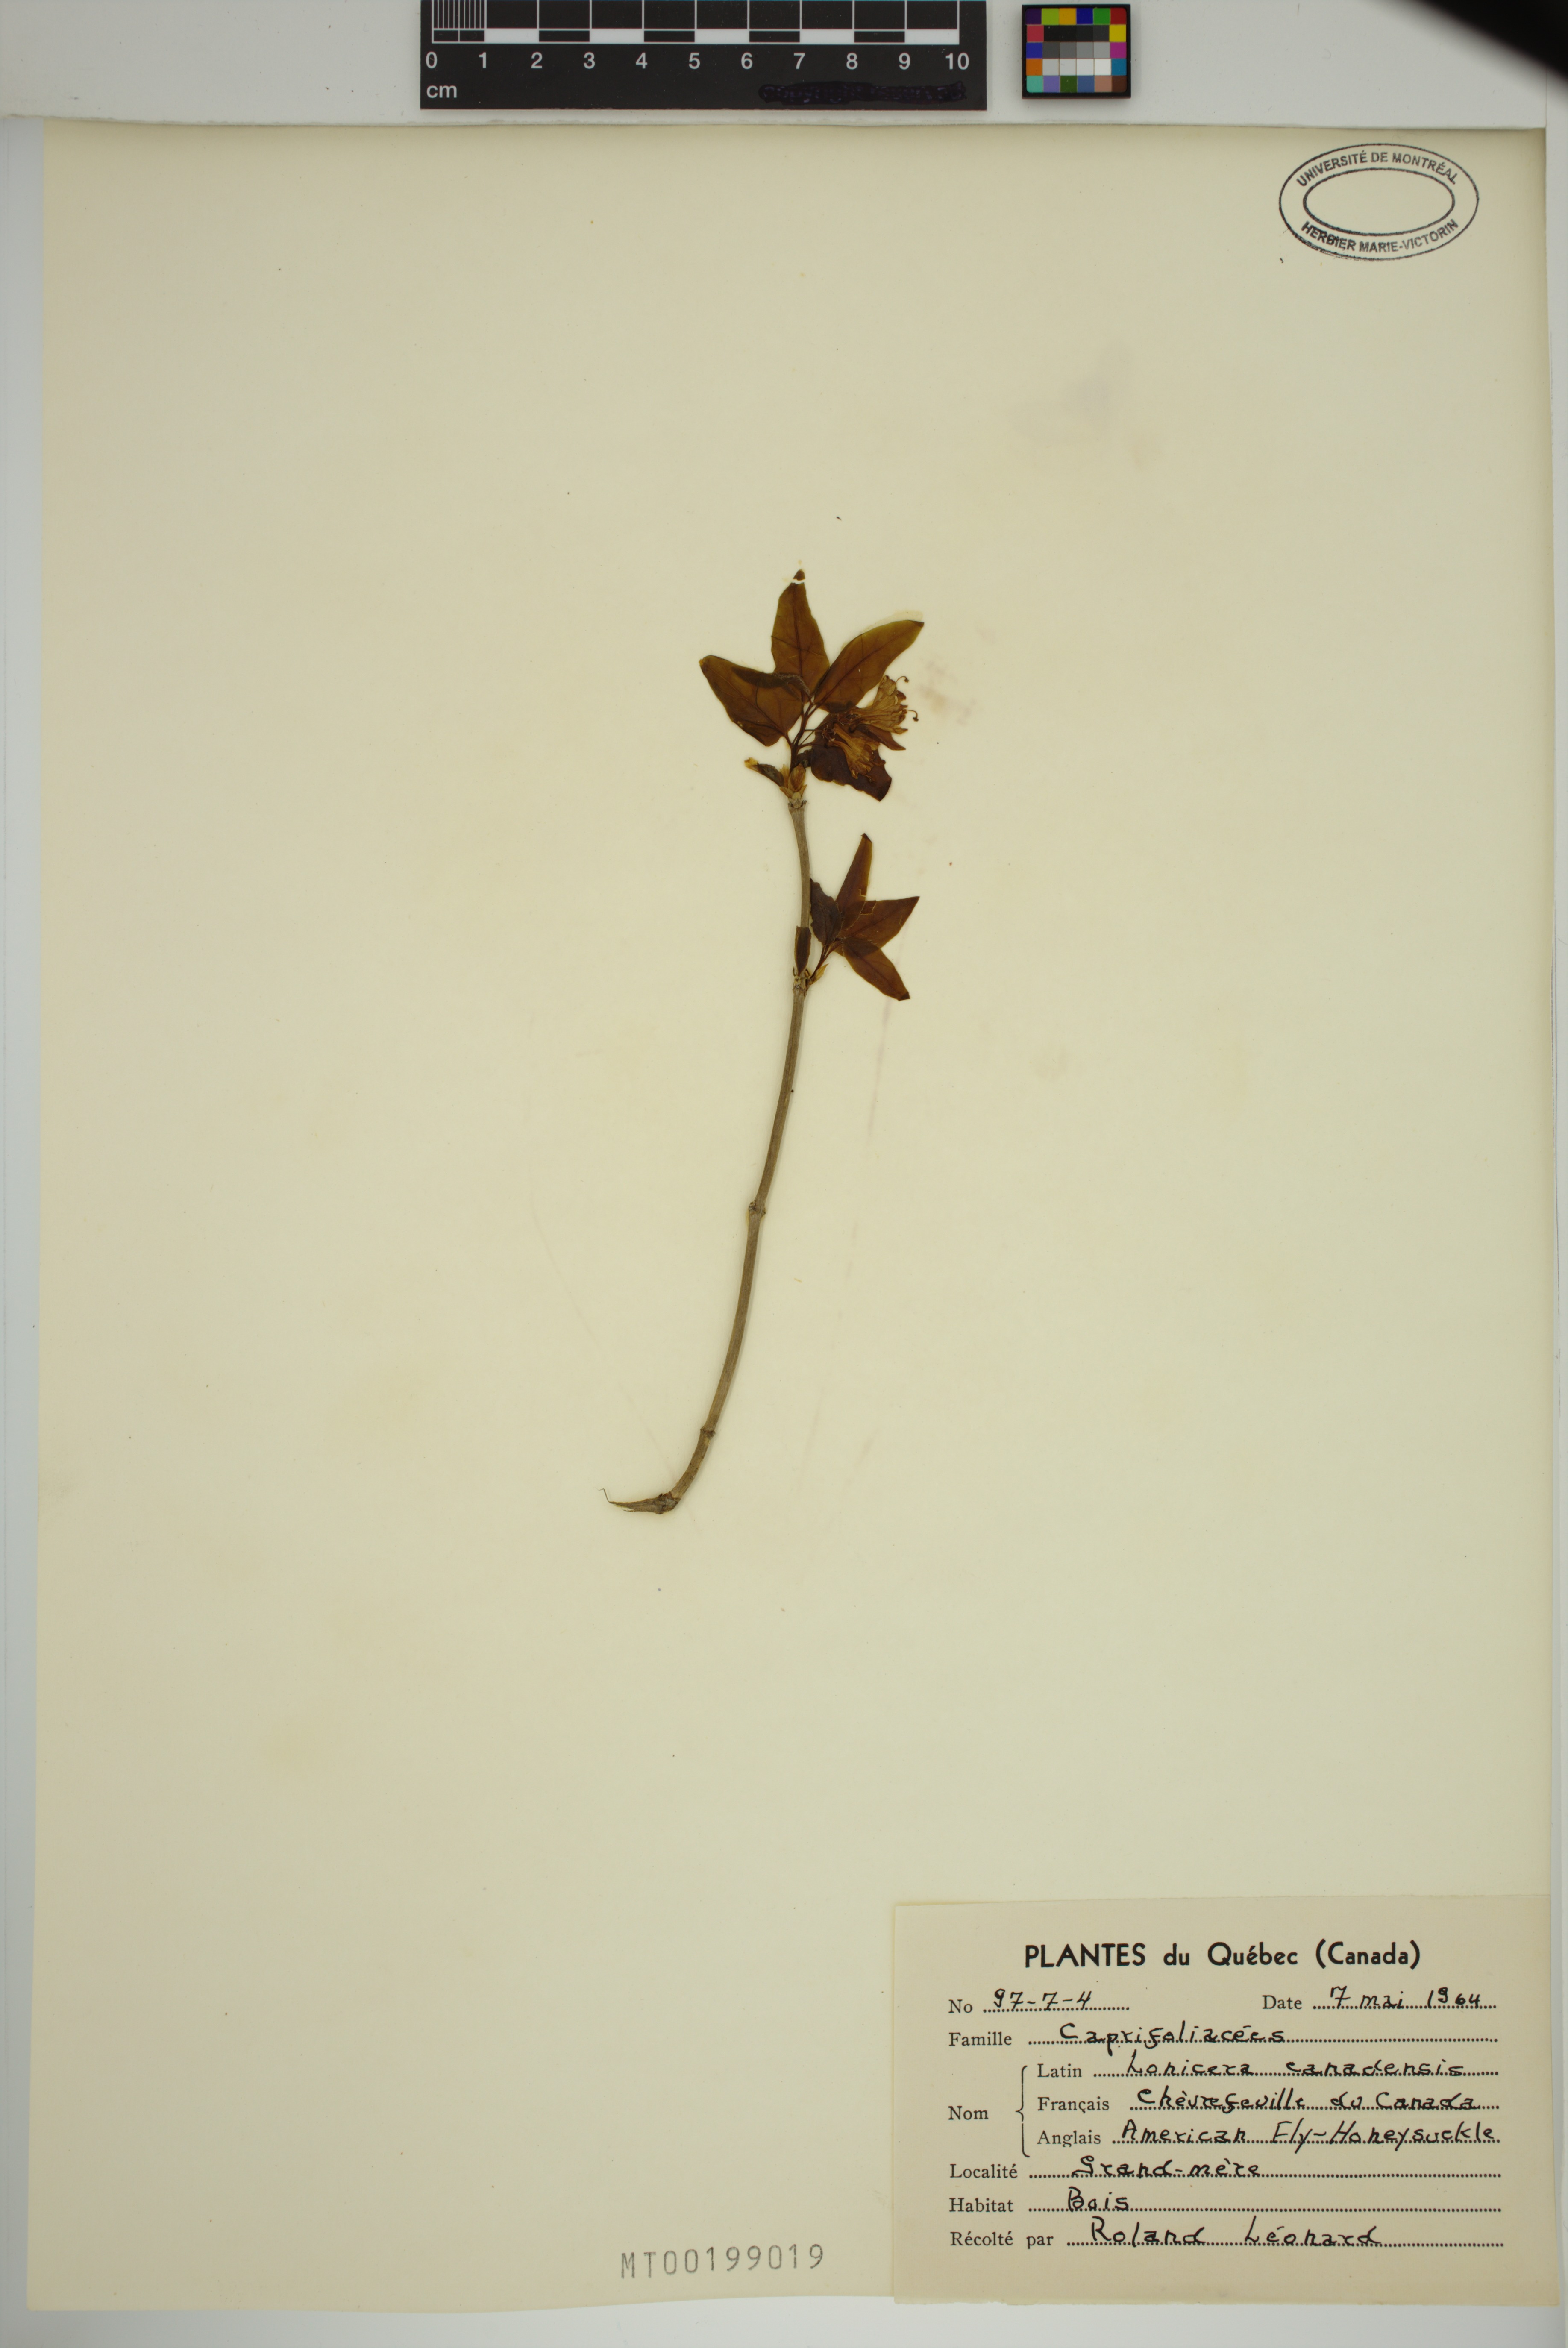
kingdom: Plantae
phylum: Tracheophyta
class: Magnoliopsida
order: Dipsacales
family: Caprifoliaceae
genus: Lonicera
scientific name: Lonicera canadensis
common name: American fly-honeysuckle
